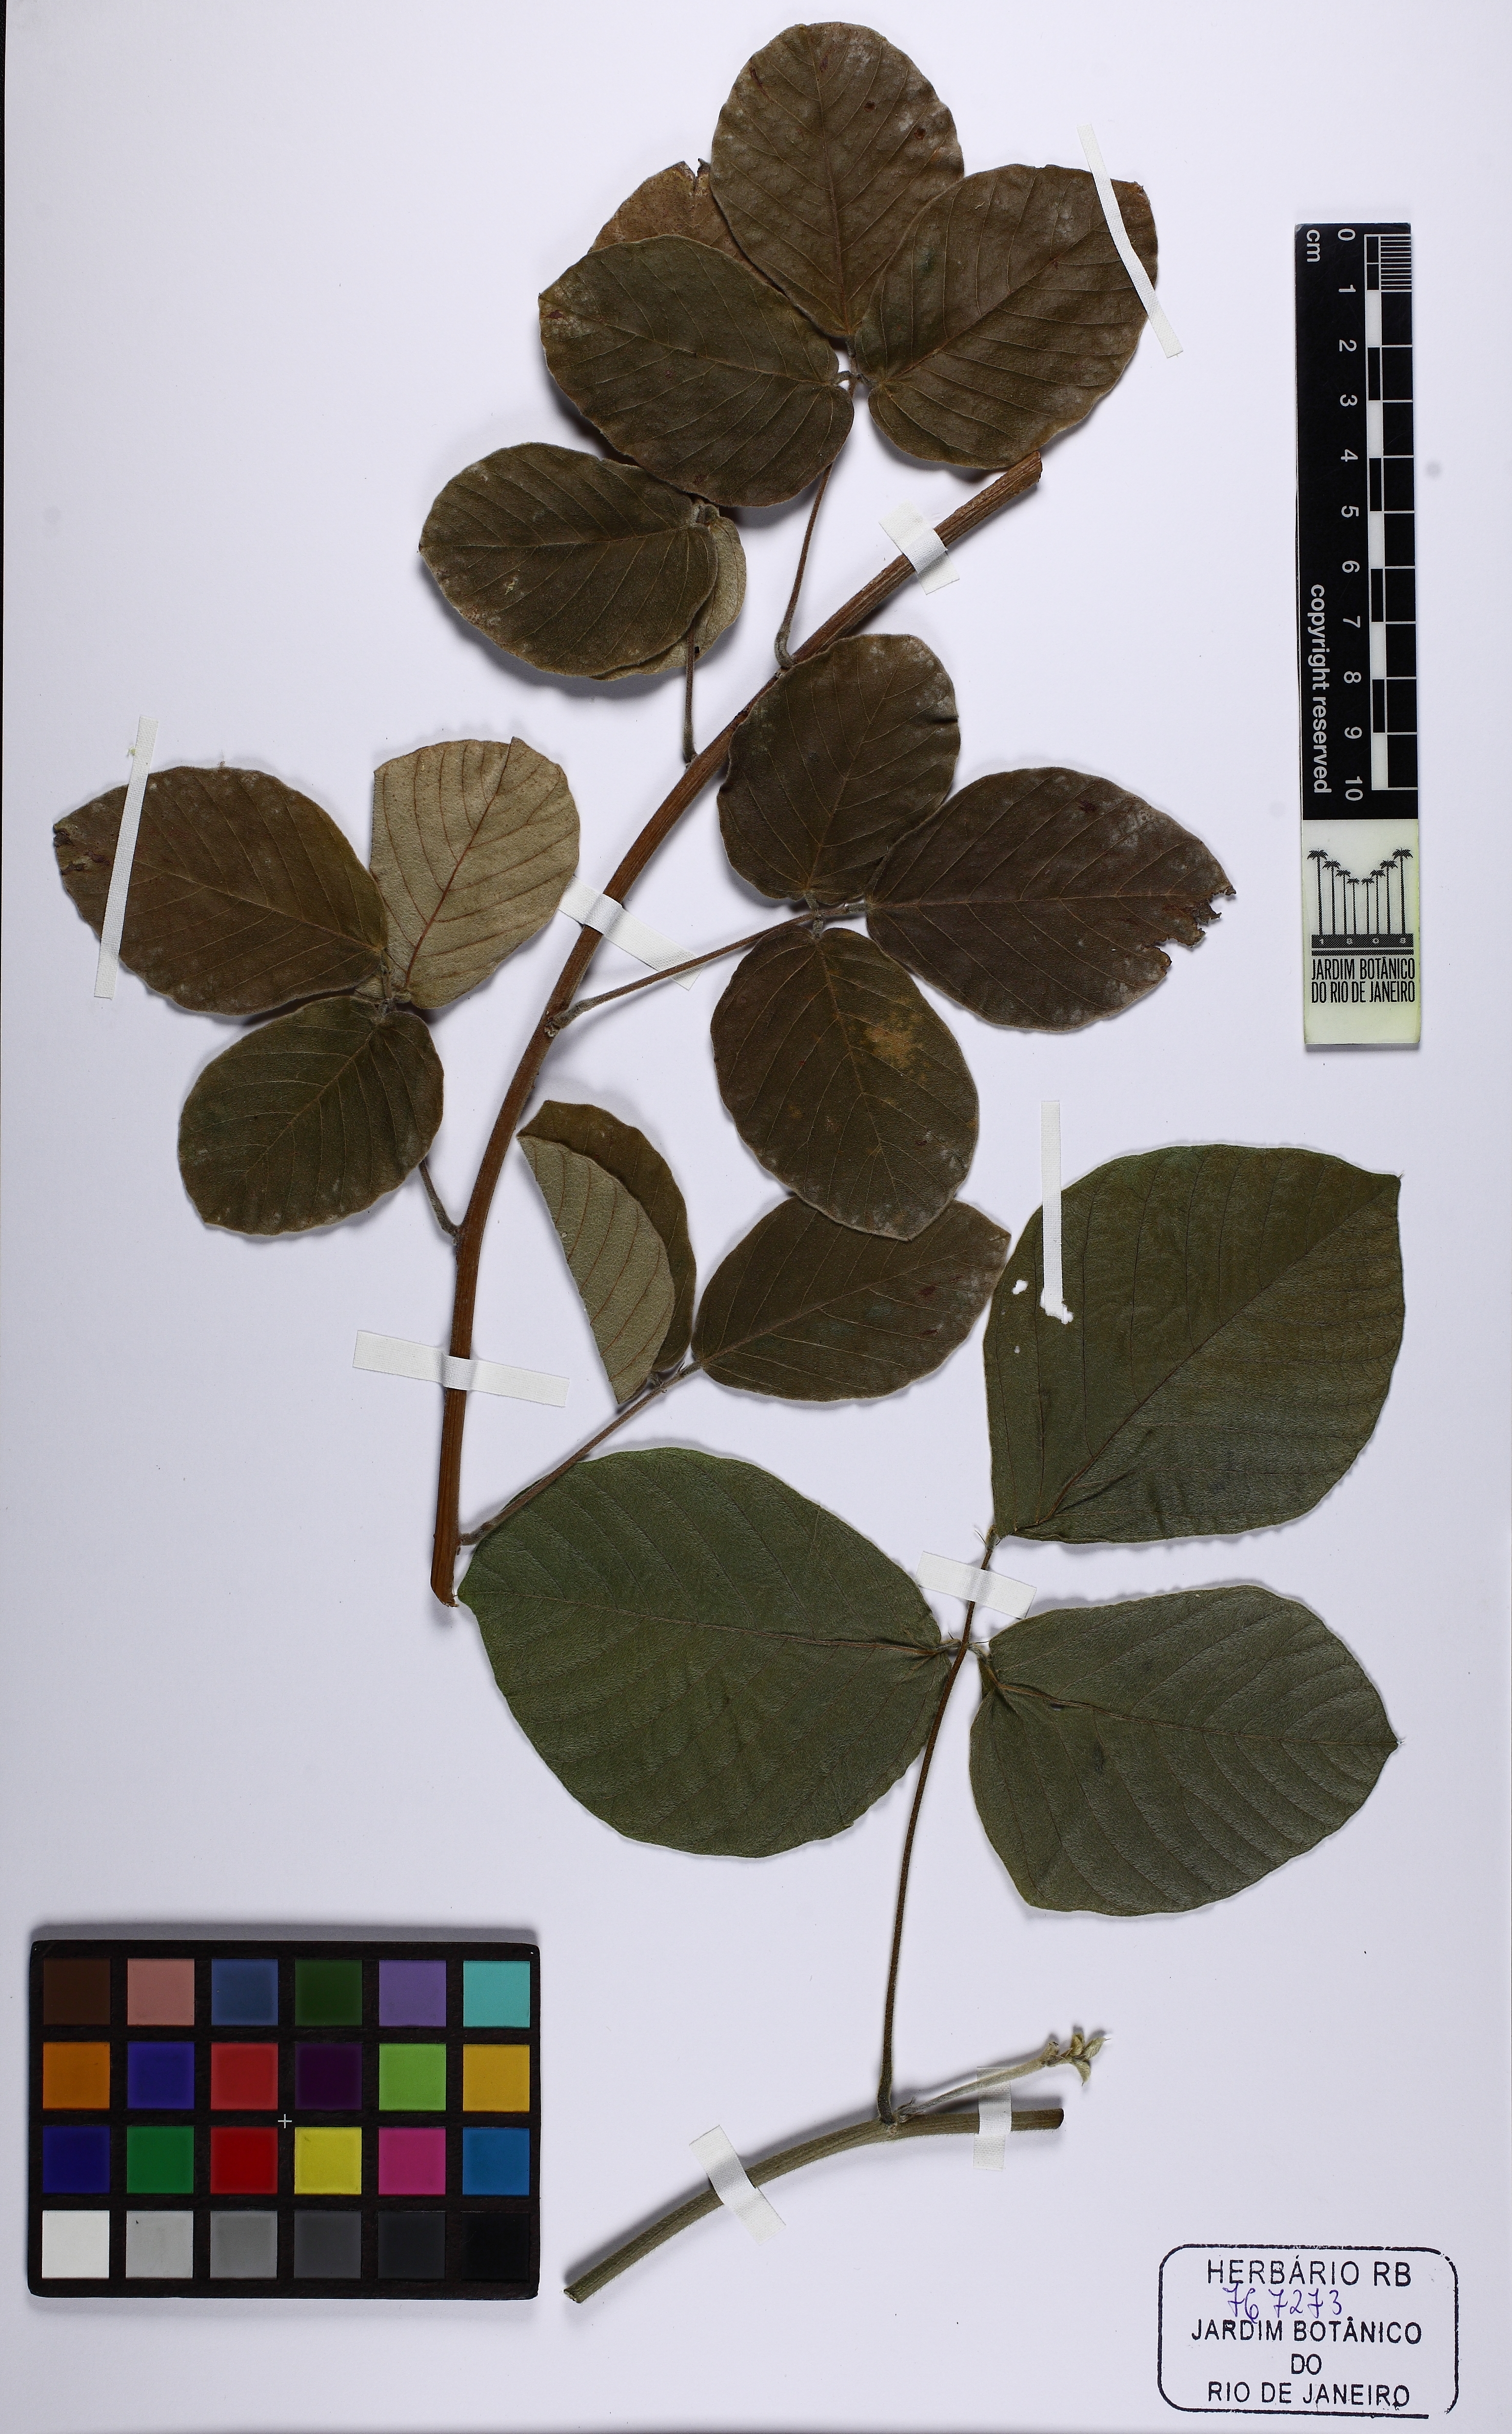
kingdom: Plantae
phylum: Tracheophyta
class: Magnoliopsida
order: Fabales
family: Fabaceae
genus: Macropsychanthus
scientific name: Macropsychanthus grandiflorus
